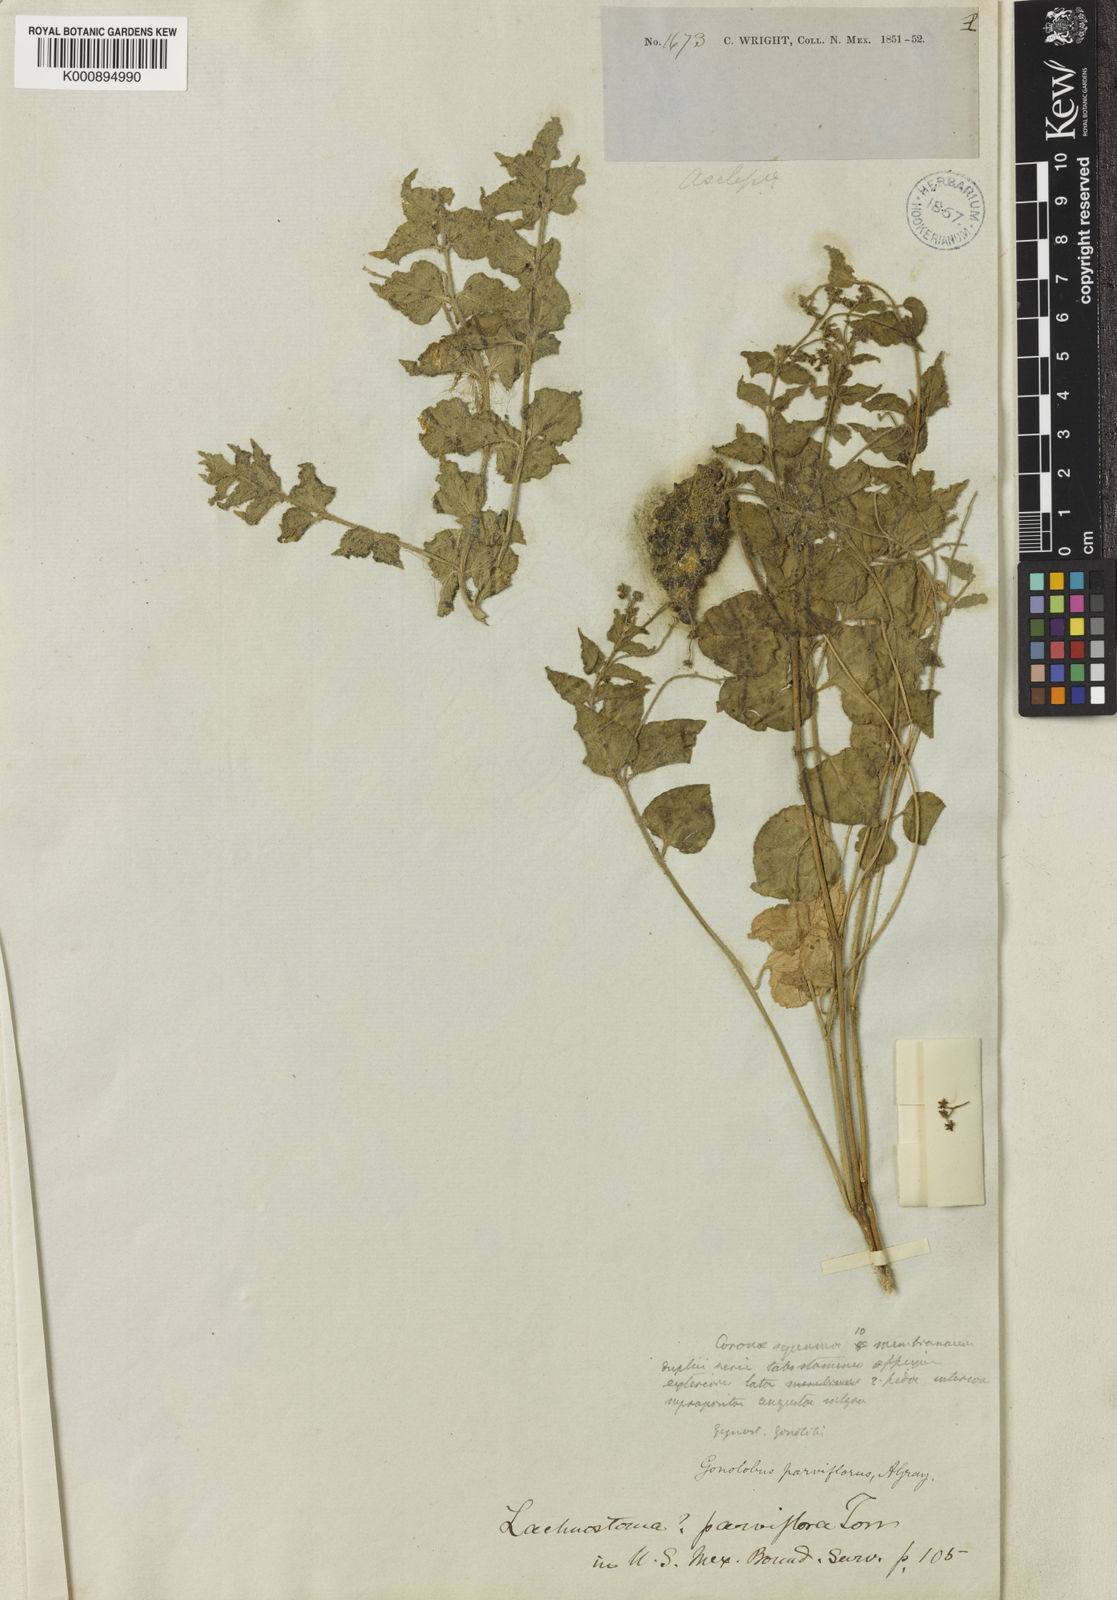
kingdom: Plantae
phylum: Tracheophyta
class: Magnoliopsida
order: Gentianales
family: Apocynaceae
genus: Chthamalia
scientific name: Chthamalia
